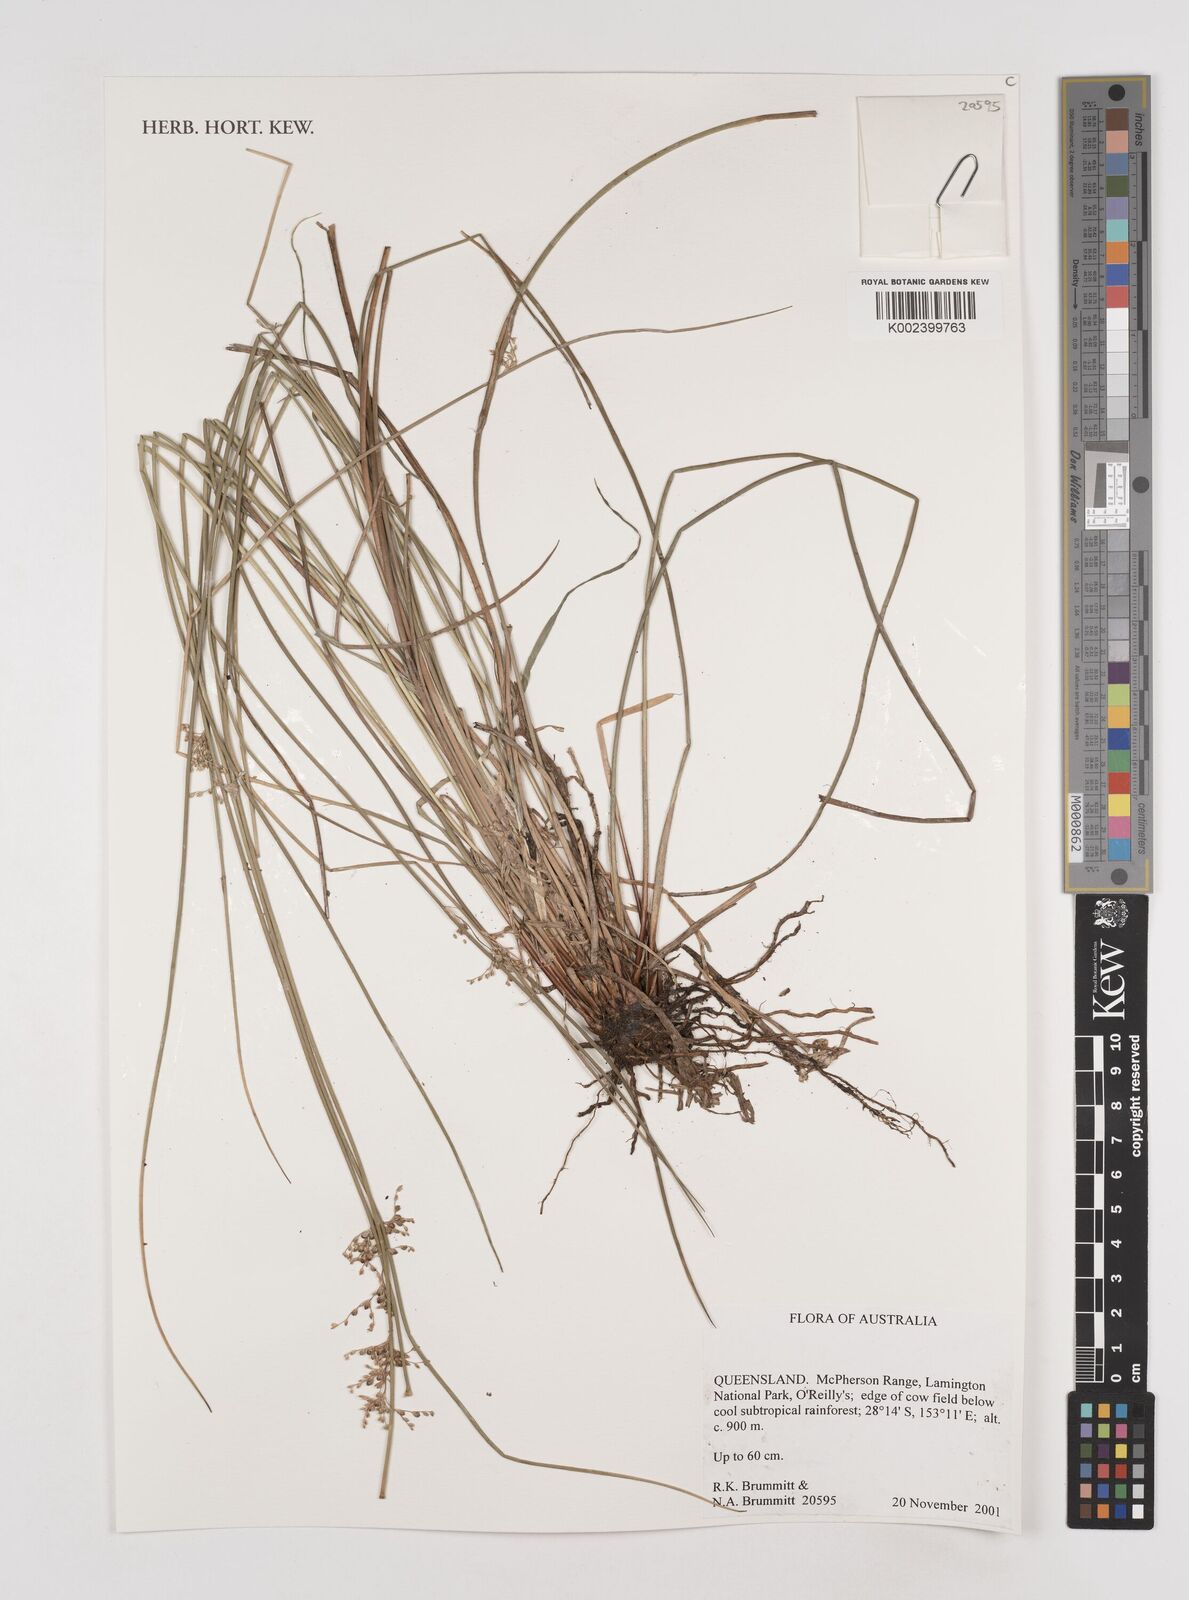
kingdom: Plantae
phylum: Tracheophyta
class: Liliopsida
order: Poales
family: Juncaceae
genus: Juncus
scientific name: Juncus
